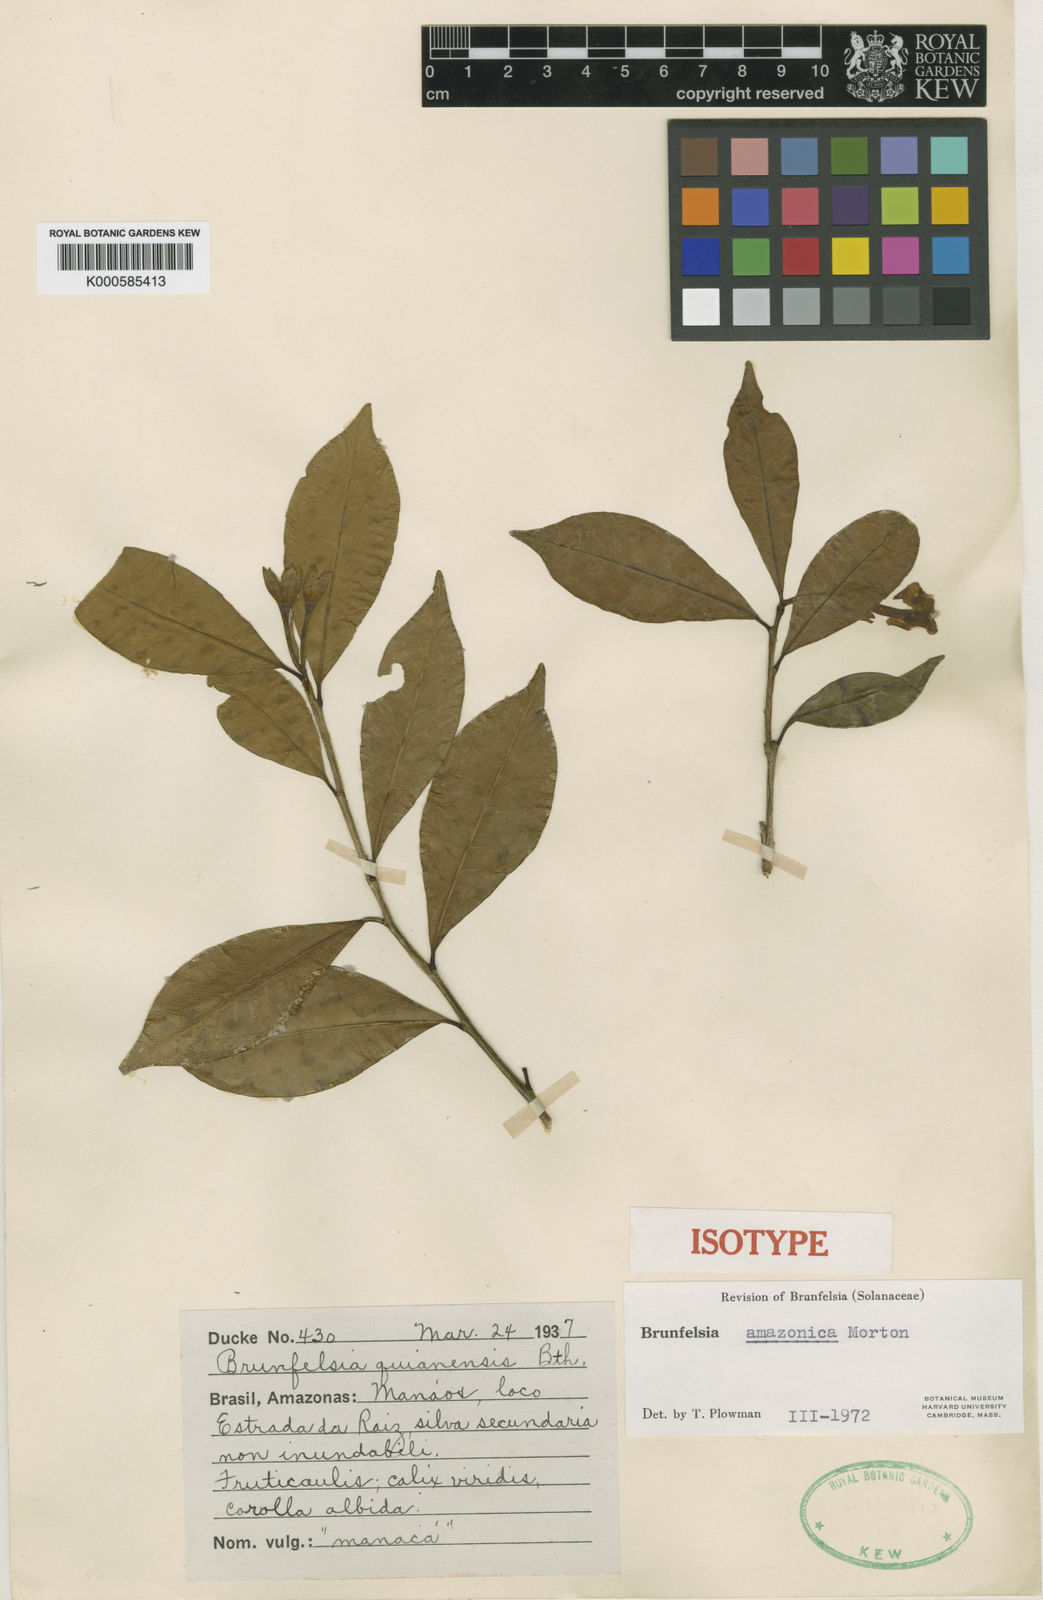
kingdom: Plantae
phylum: Tracheophyta
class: Magnoliopsida
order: Solanales
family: Solanaceae
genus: Brunfelsia
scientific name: Brunfelsia amazonica
